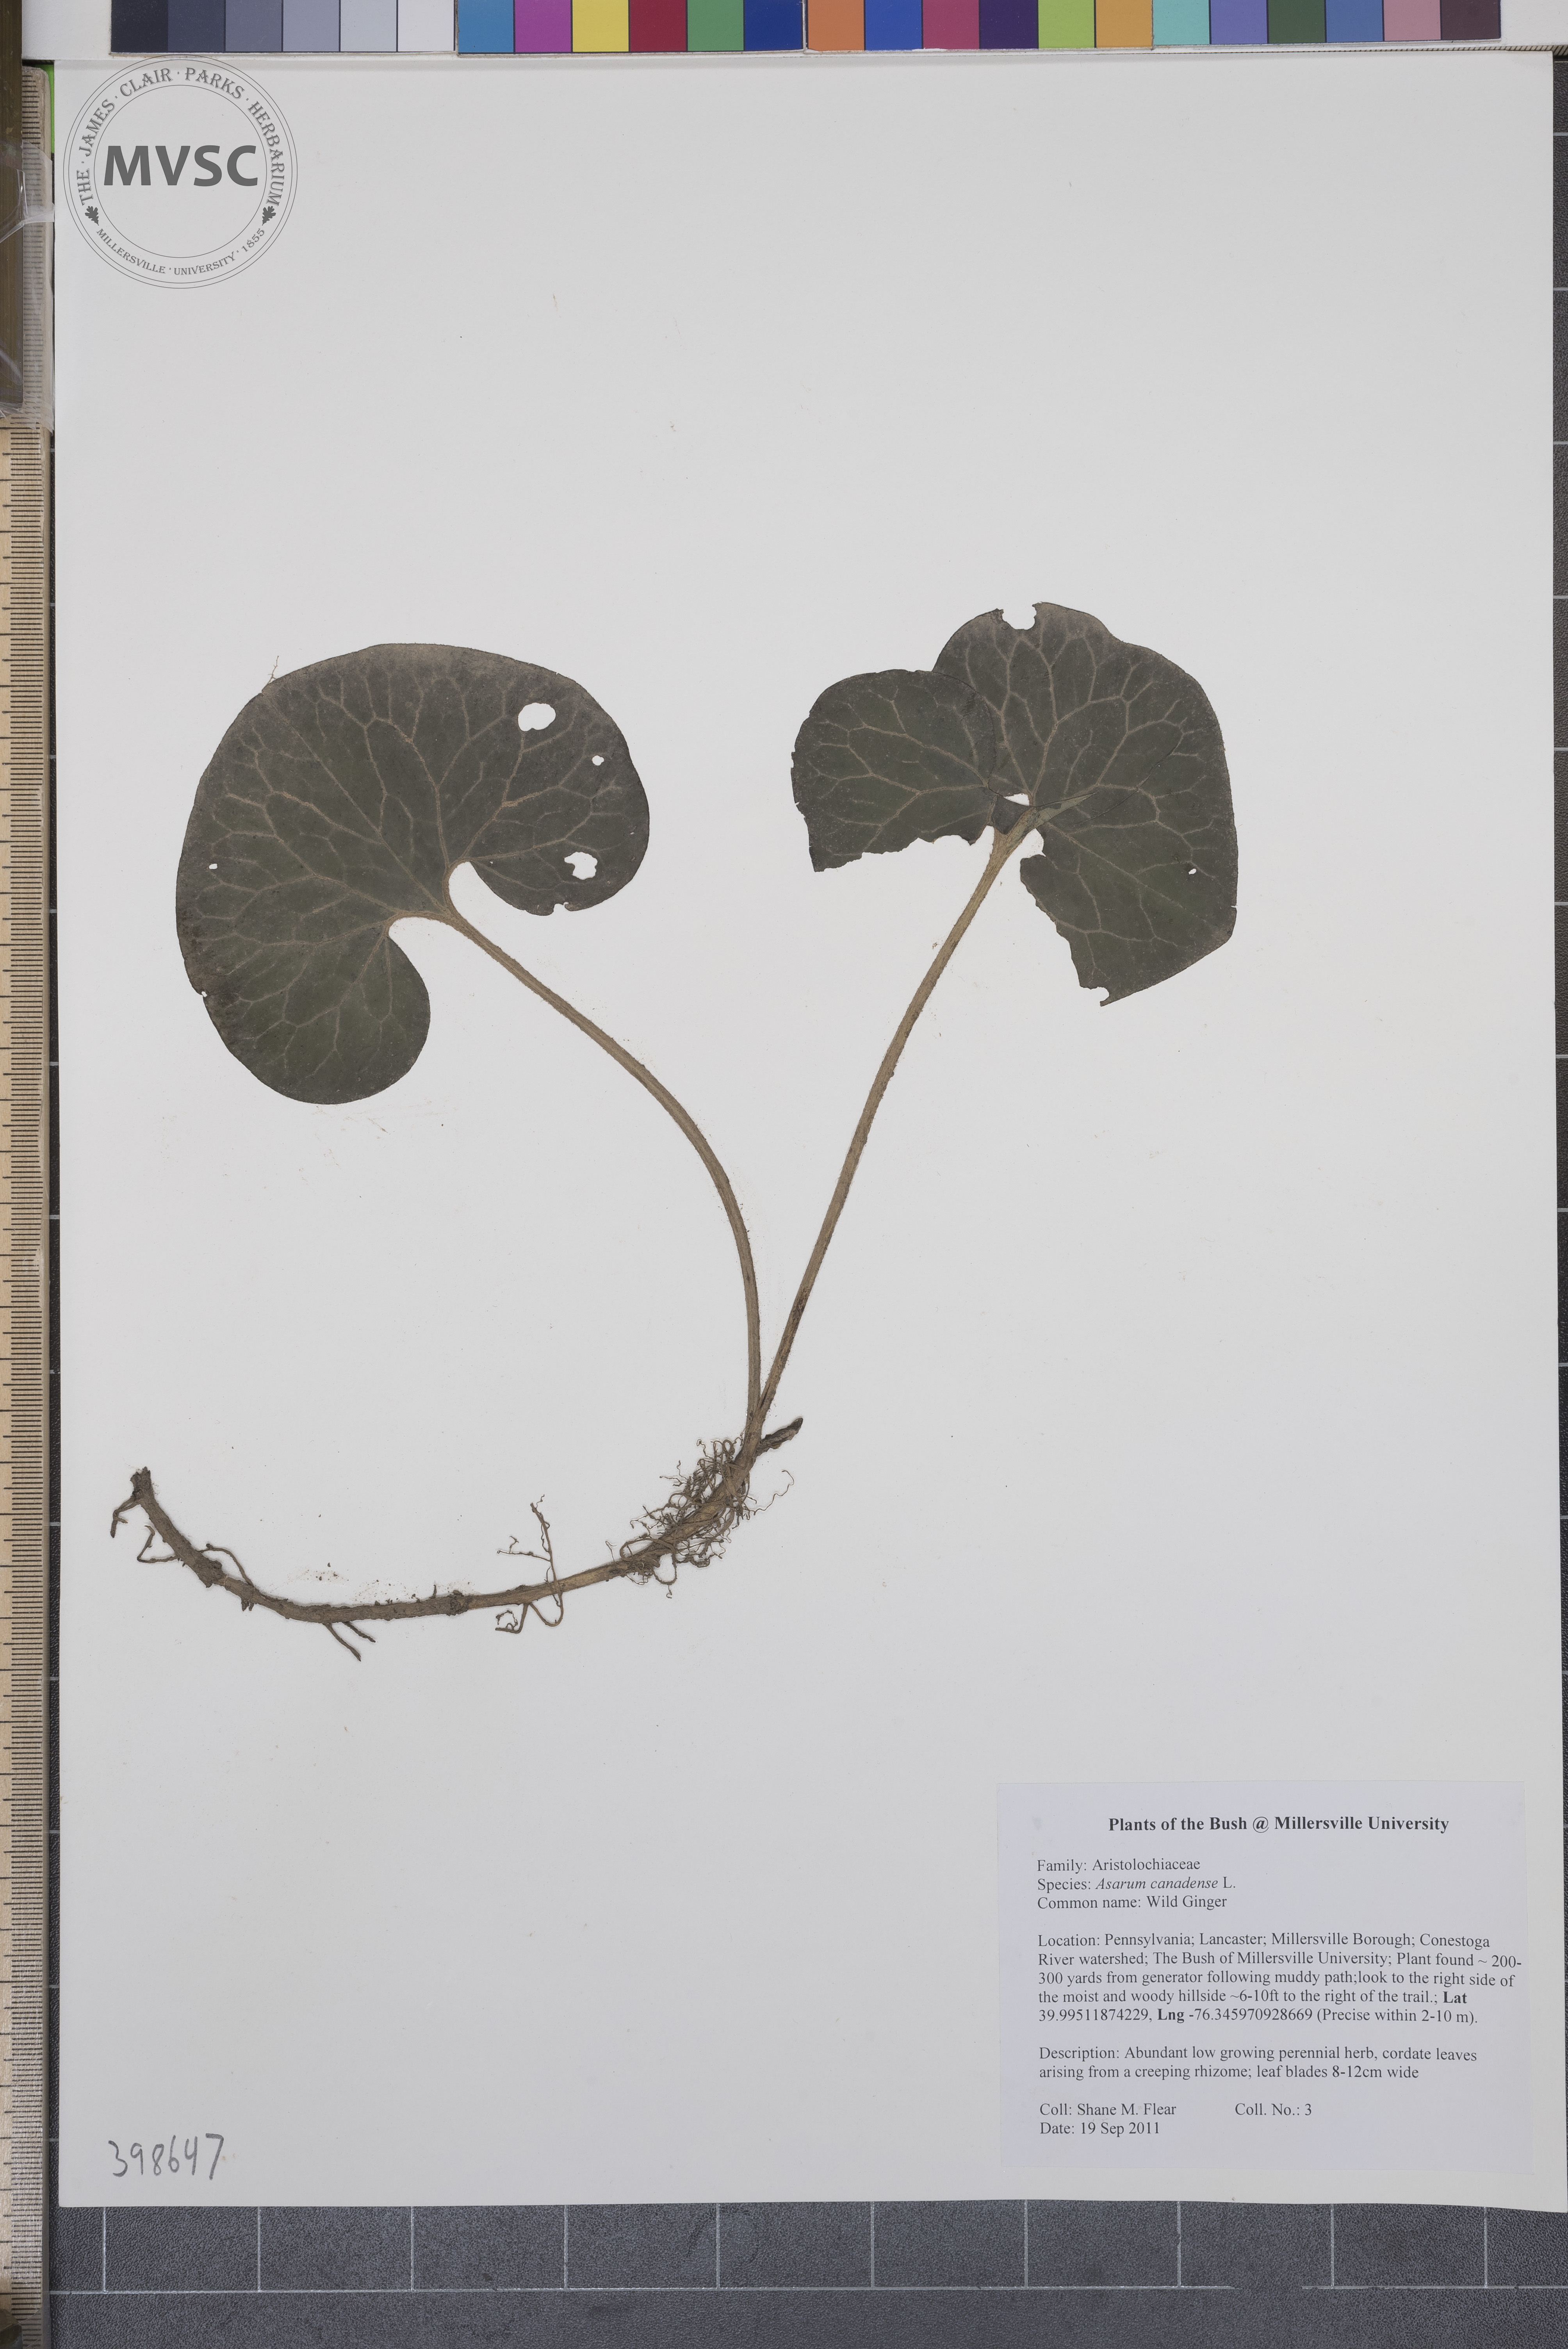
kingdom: Plantae
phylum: Tracheophyta
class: Magnoliopsida
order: Piperales
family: Aristolochiaceae
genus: Asarum
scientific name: Asarum canadense
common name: Wild ginger
